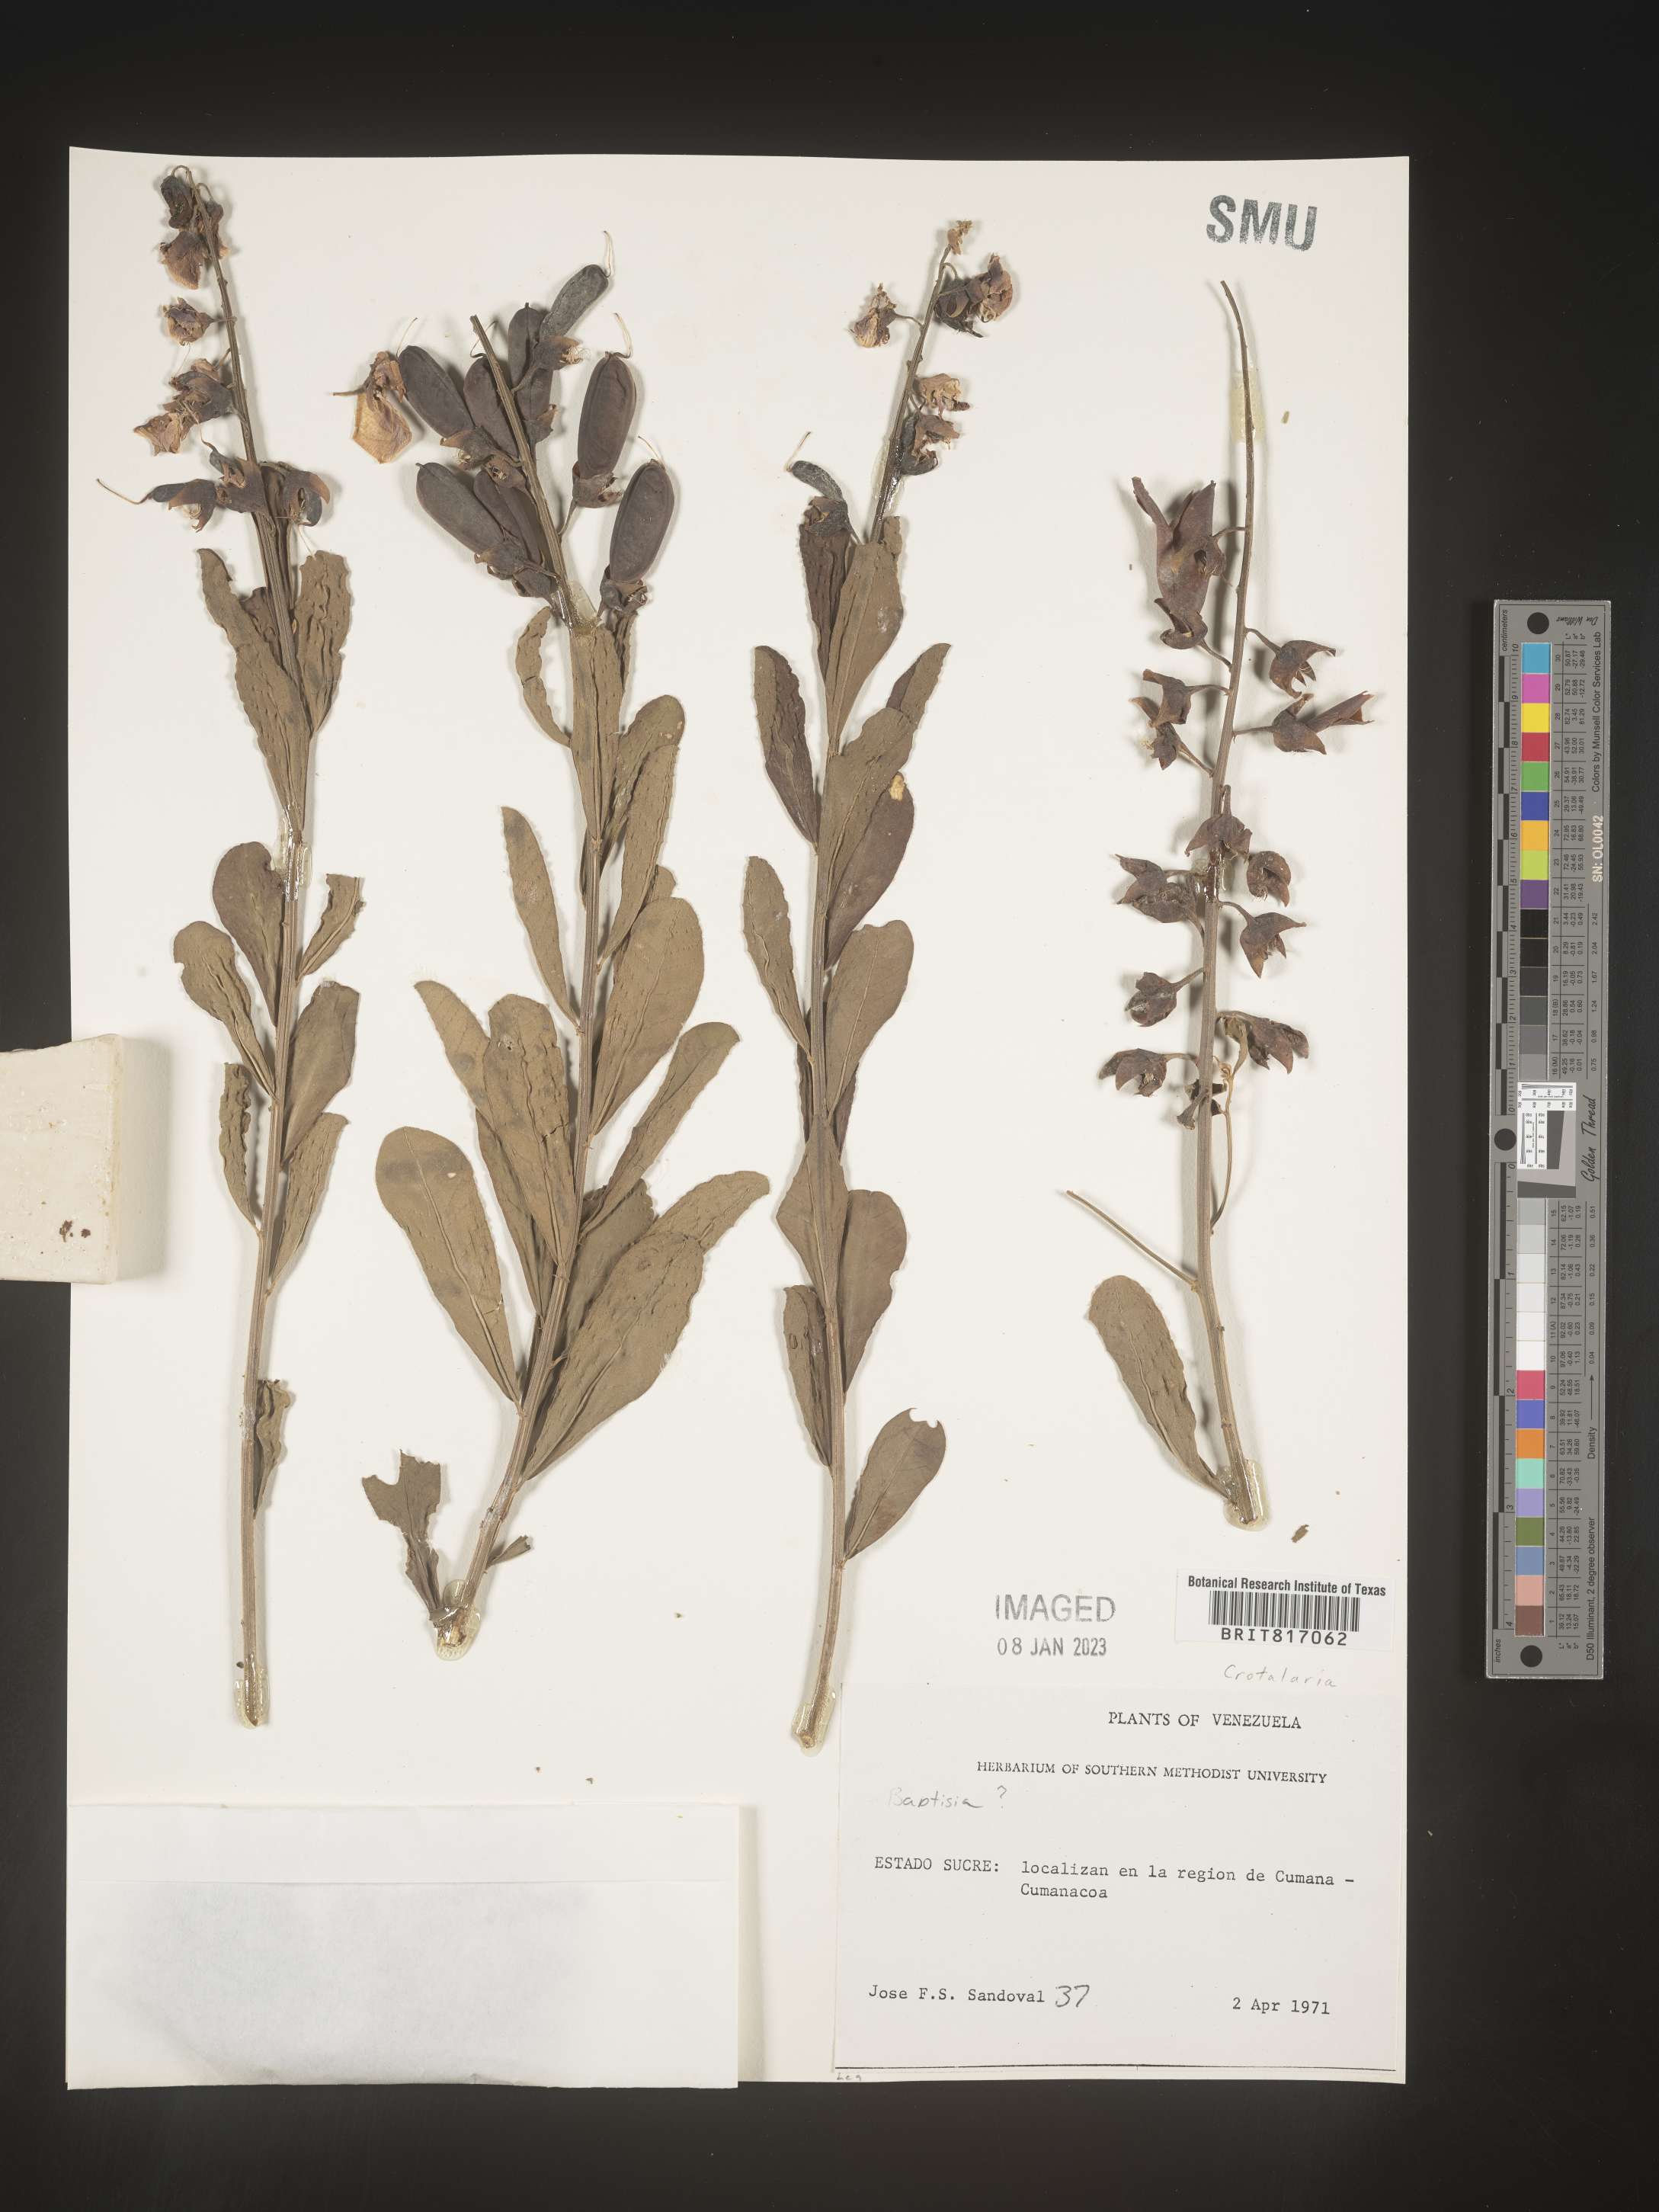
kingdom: Plantae
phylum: Tracheophyta
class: Magnoliopsida
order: Fabales
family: Fabaceae
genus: Crotalaria
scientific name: Crotalaria
